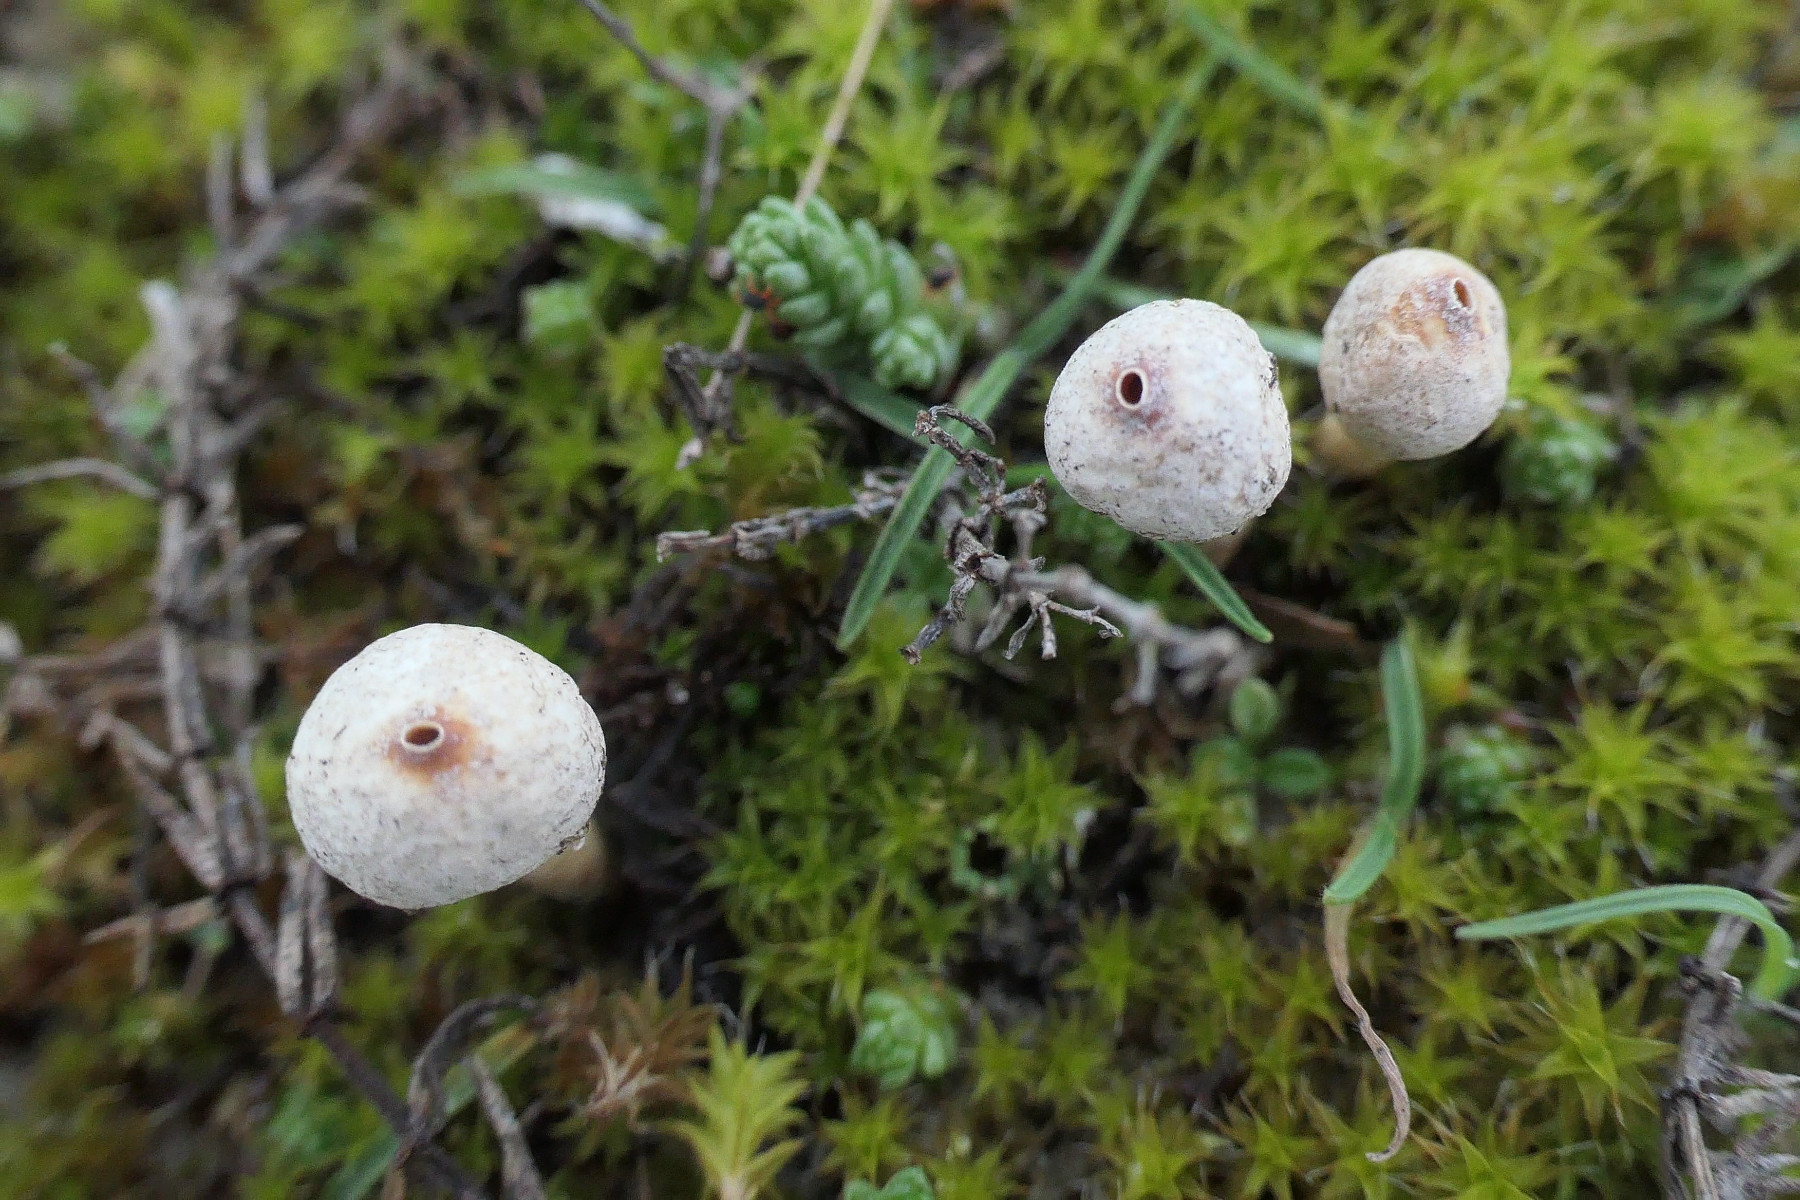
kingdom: Fungi
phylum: Basidiomycota
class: Agaricomycetes
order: Agaricales
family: Agaricaceae
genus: Tulostoma
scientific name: Tulostoma brumale
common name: vinter-stilkbovist
